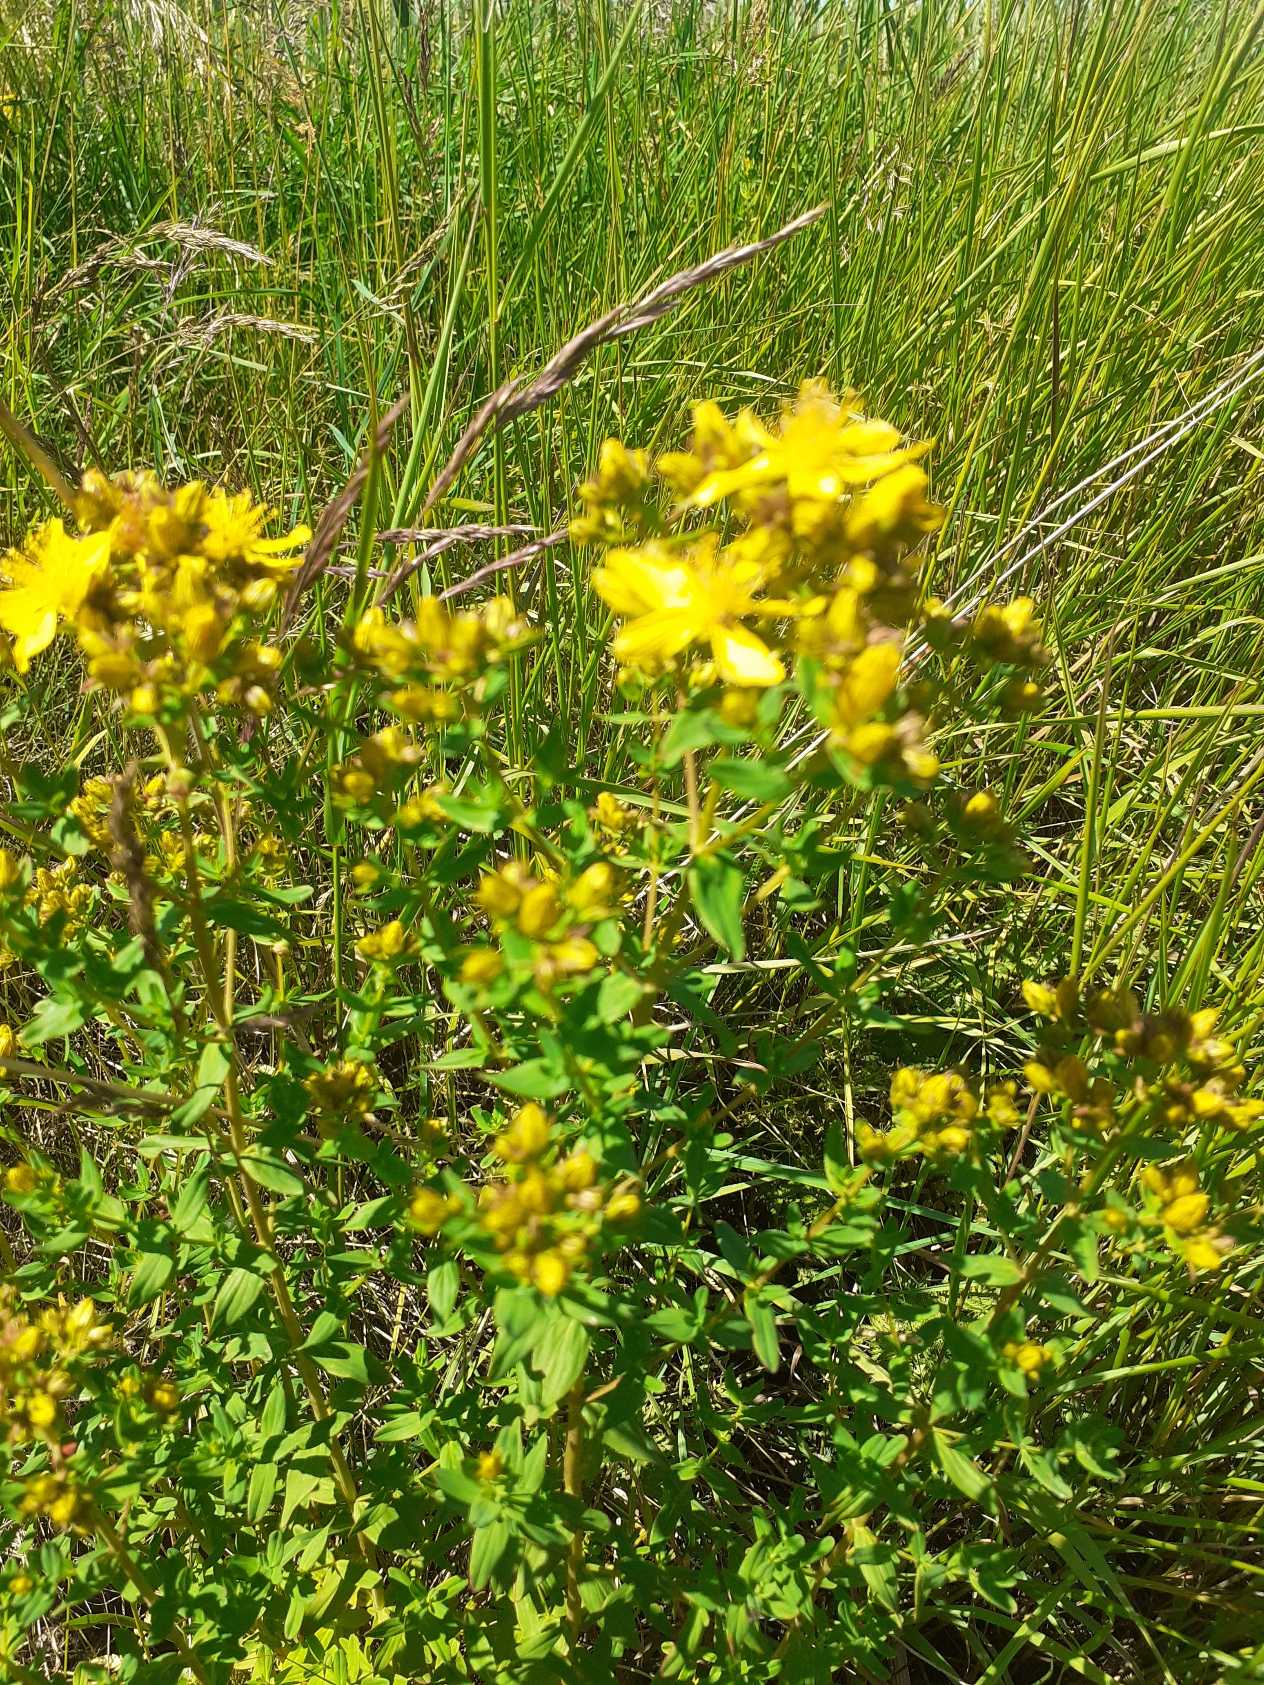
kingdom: Plantae
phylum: Tracheophyta
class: Magnoliopsida
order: Malpighiales
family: Hypericaceae
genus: Hypericum
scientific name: Hypericum
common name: Perikonslægten
